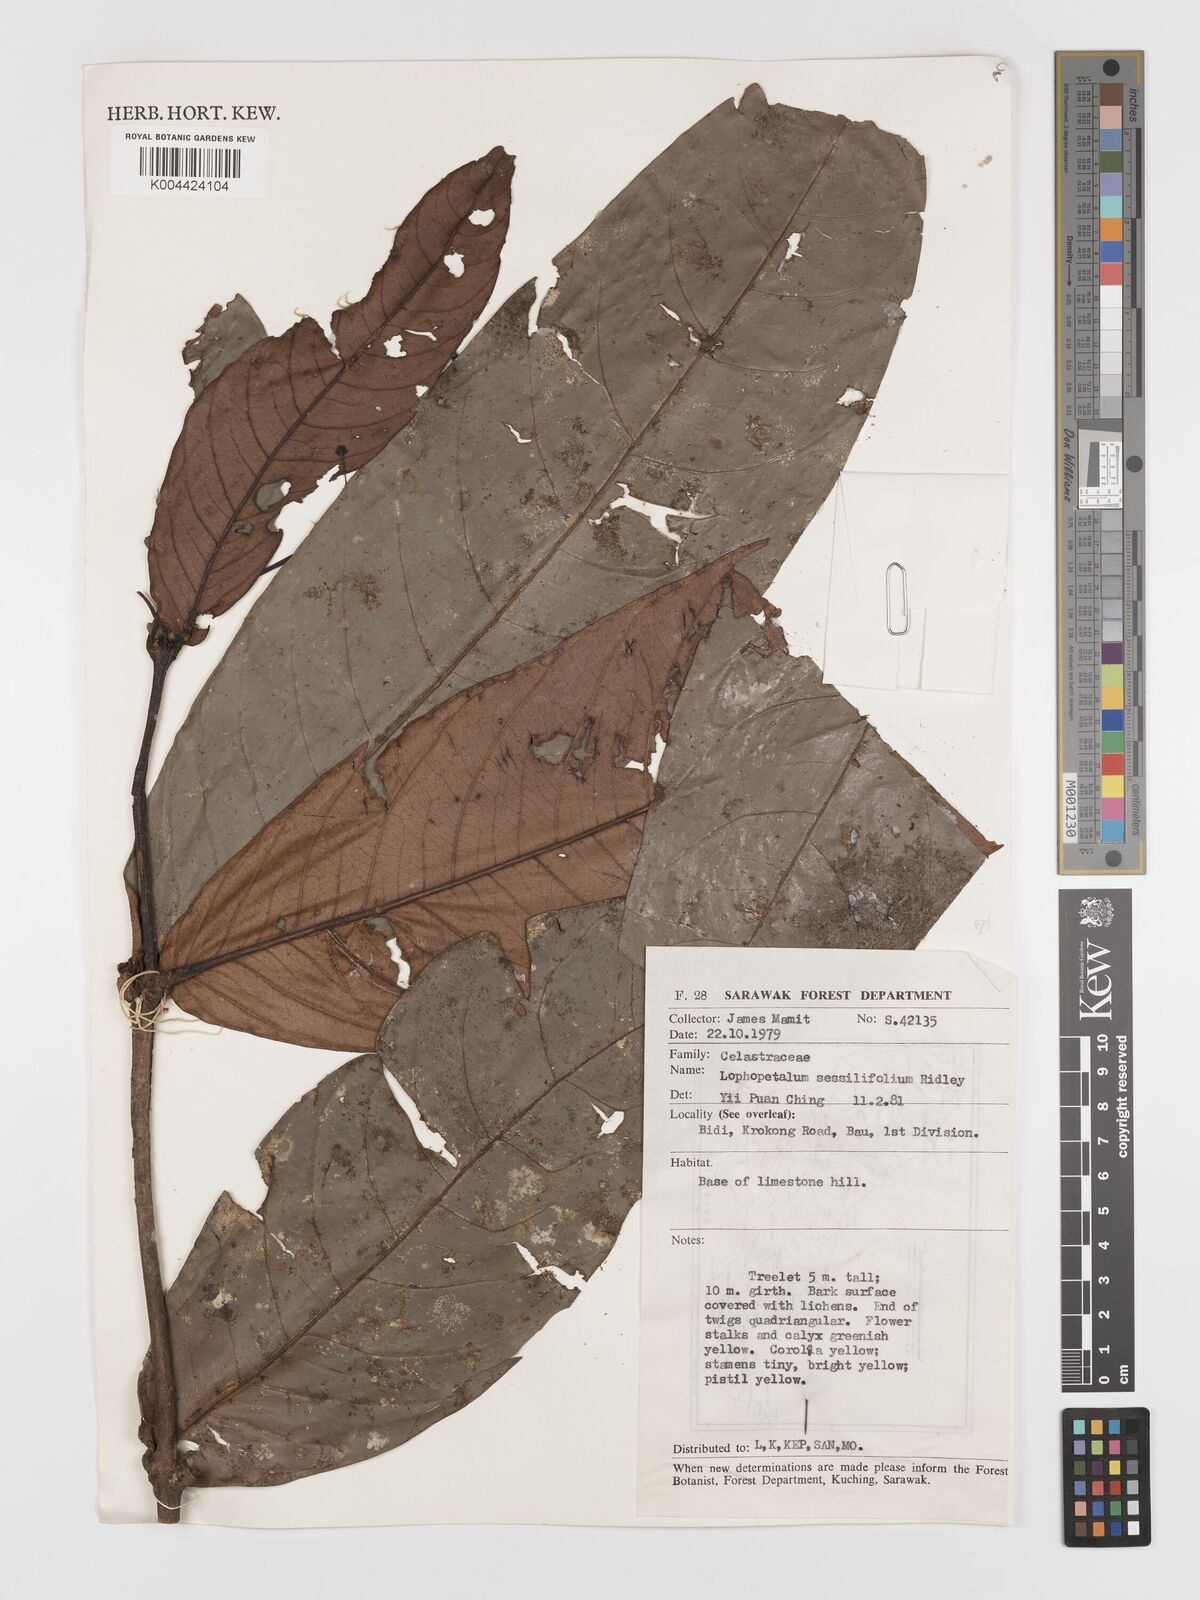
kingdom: Plantae
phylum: Tracheophyta
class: Magnoliopsida
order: Celastrales
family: Celastraceae
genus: Lophopetalum
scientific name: Lophopetalum sessilifolium
